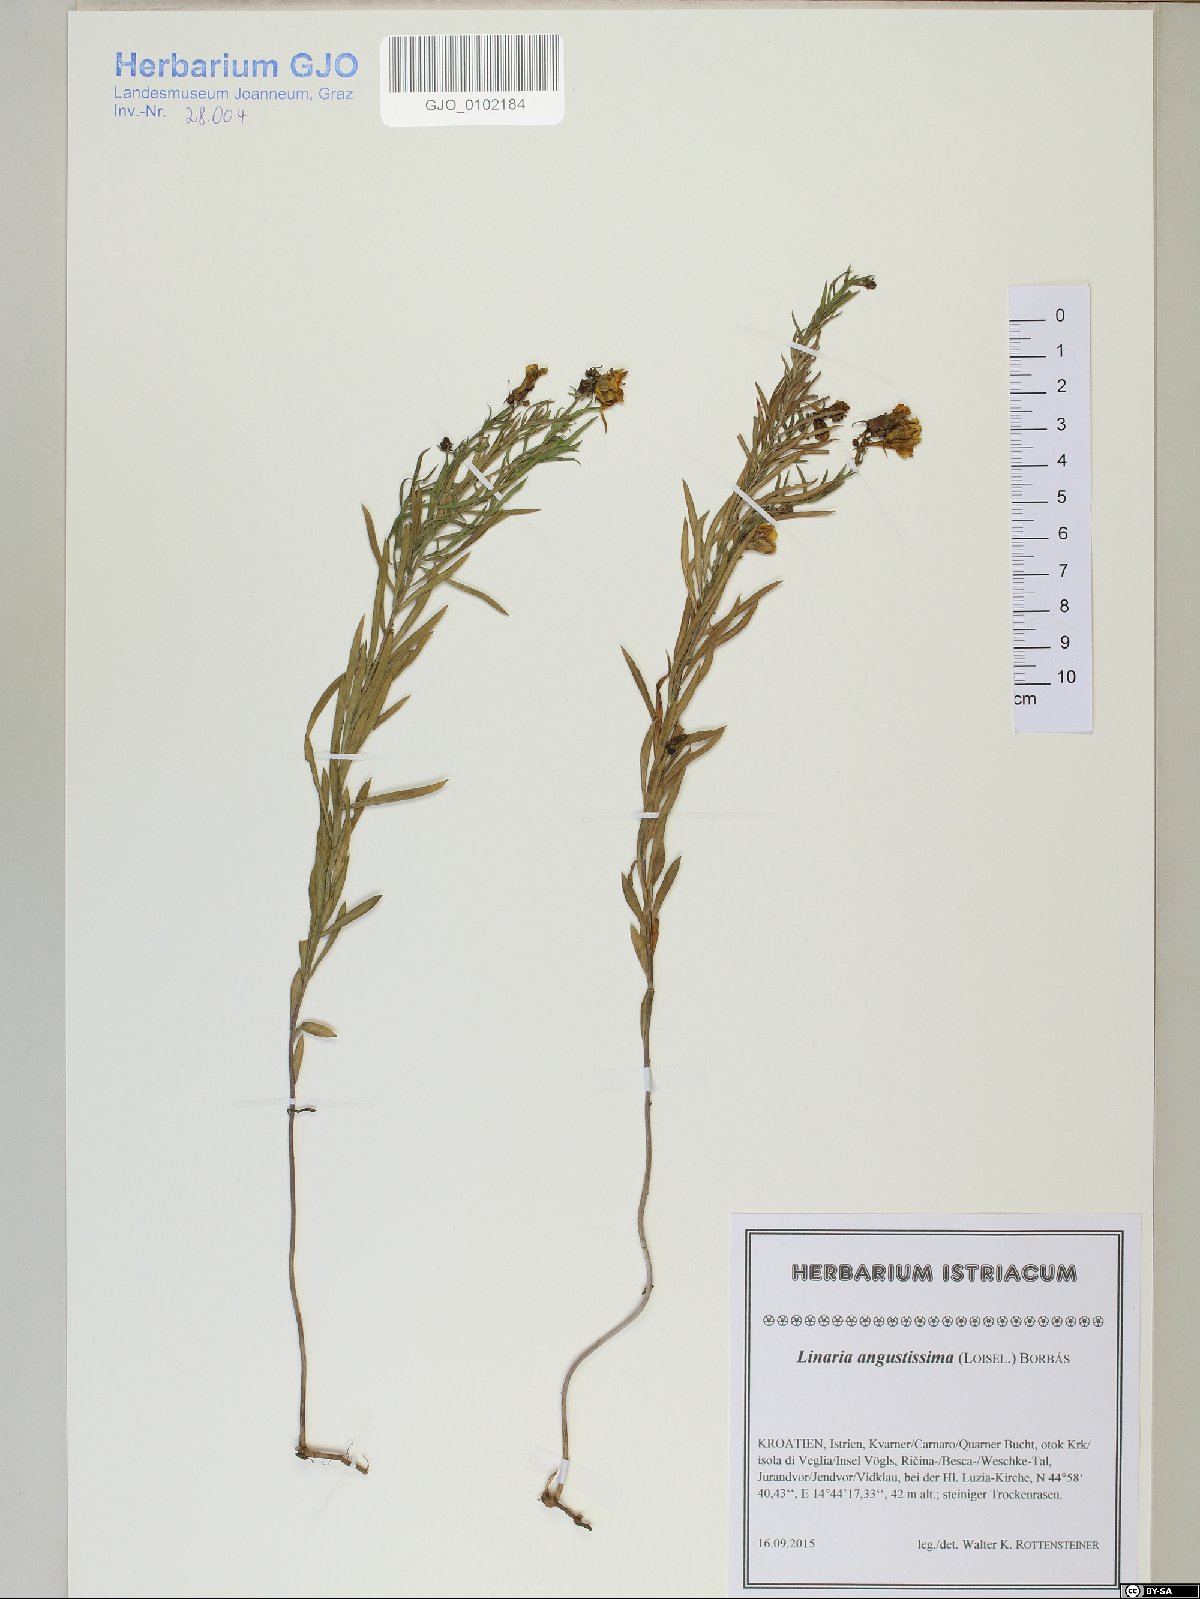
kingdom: Plantae
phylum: Tracheophyta
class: Magnoliopsida
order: Lamiales
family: Plantaginaceae
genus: Linaria
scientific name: Linaria angustissima
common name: Italian toadflax
